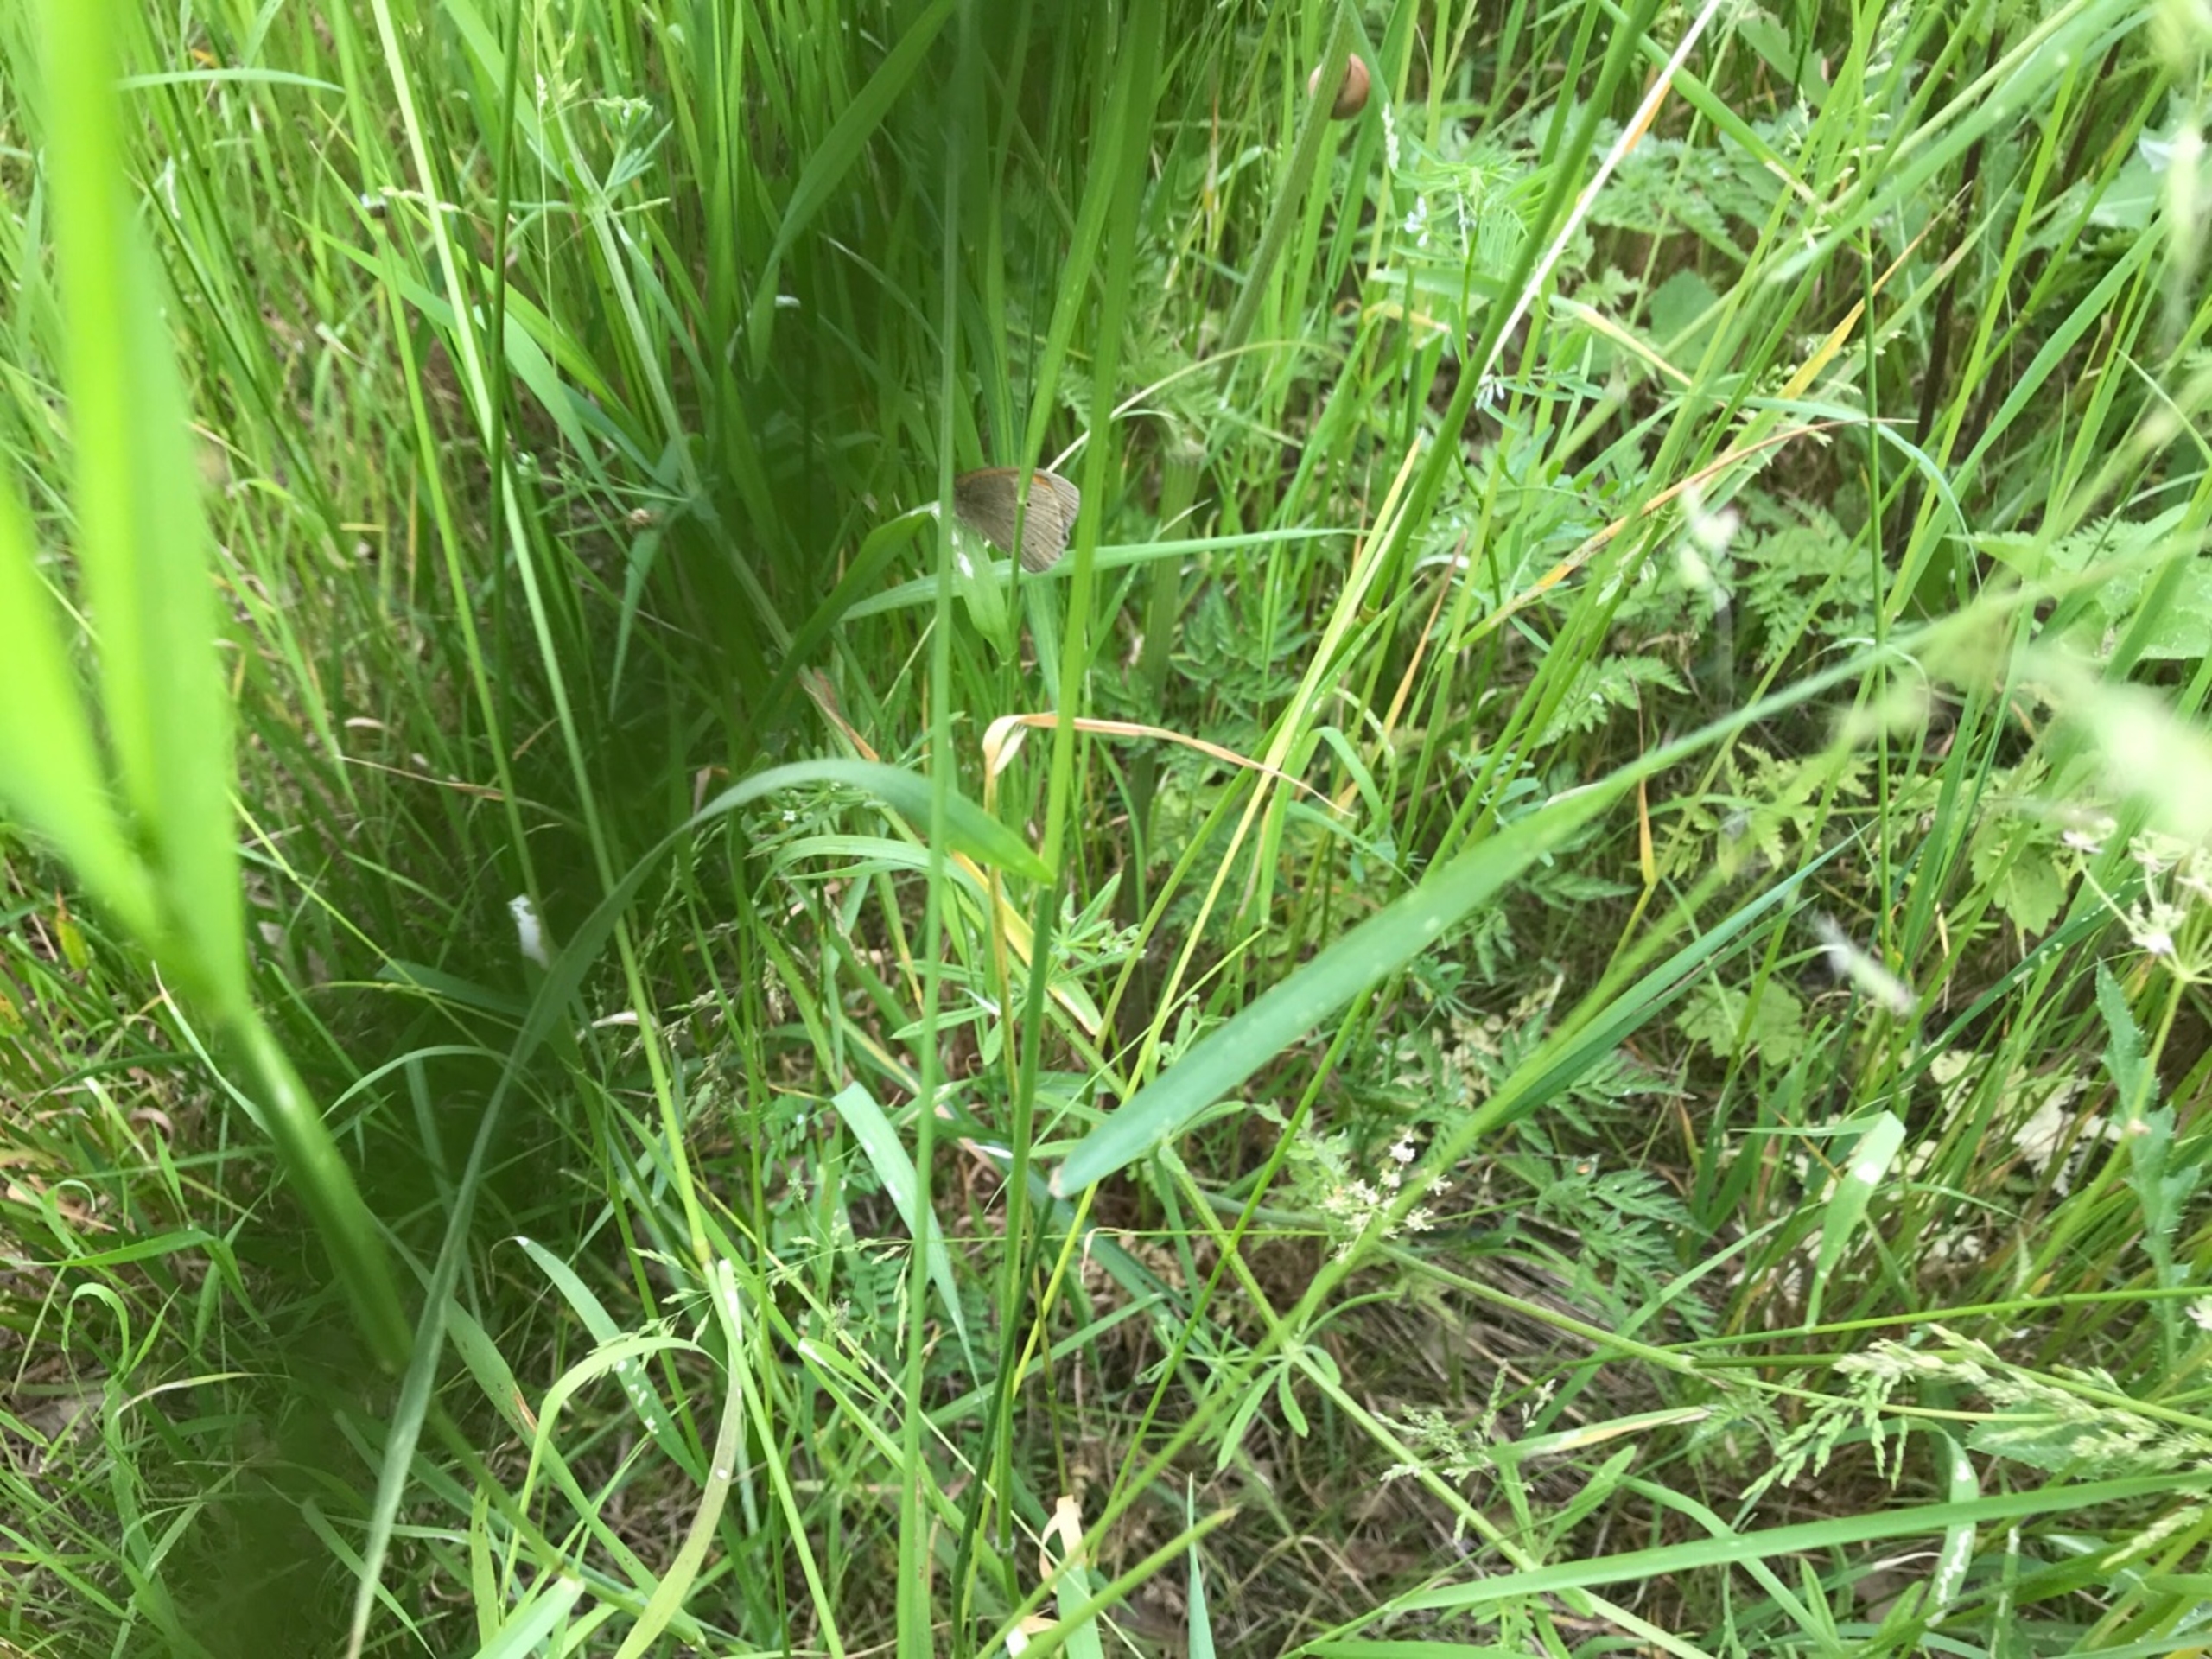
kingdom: Animalia
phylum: Arthropoda
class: Insecta
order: Lepidoptera
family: Nymphalidae
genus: Maniola
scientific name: Maniola jurtina
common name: Græsrandøje
